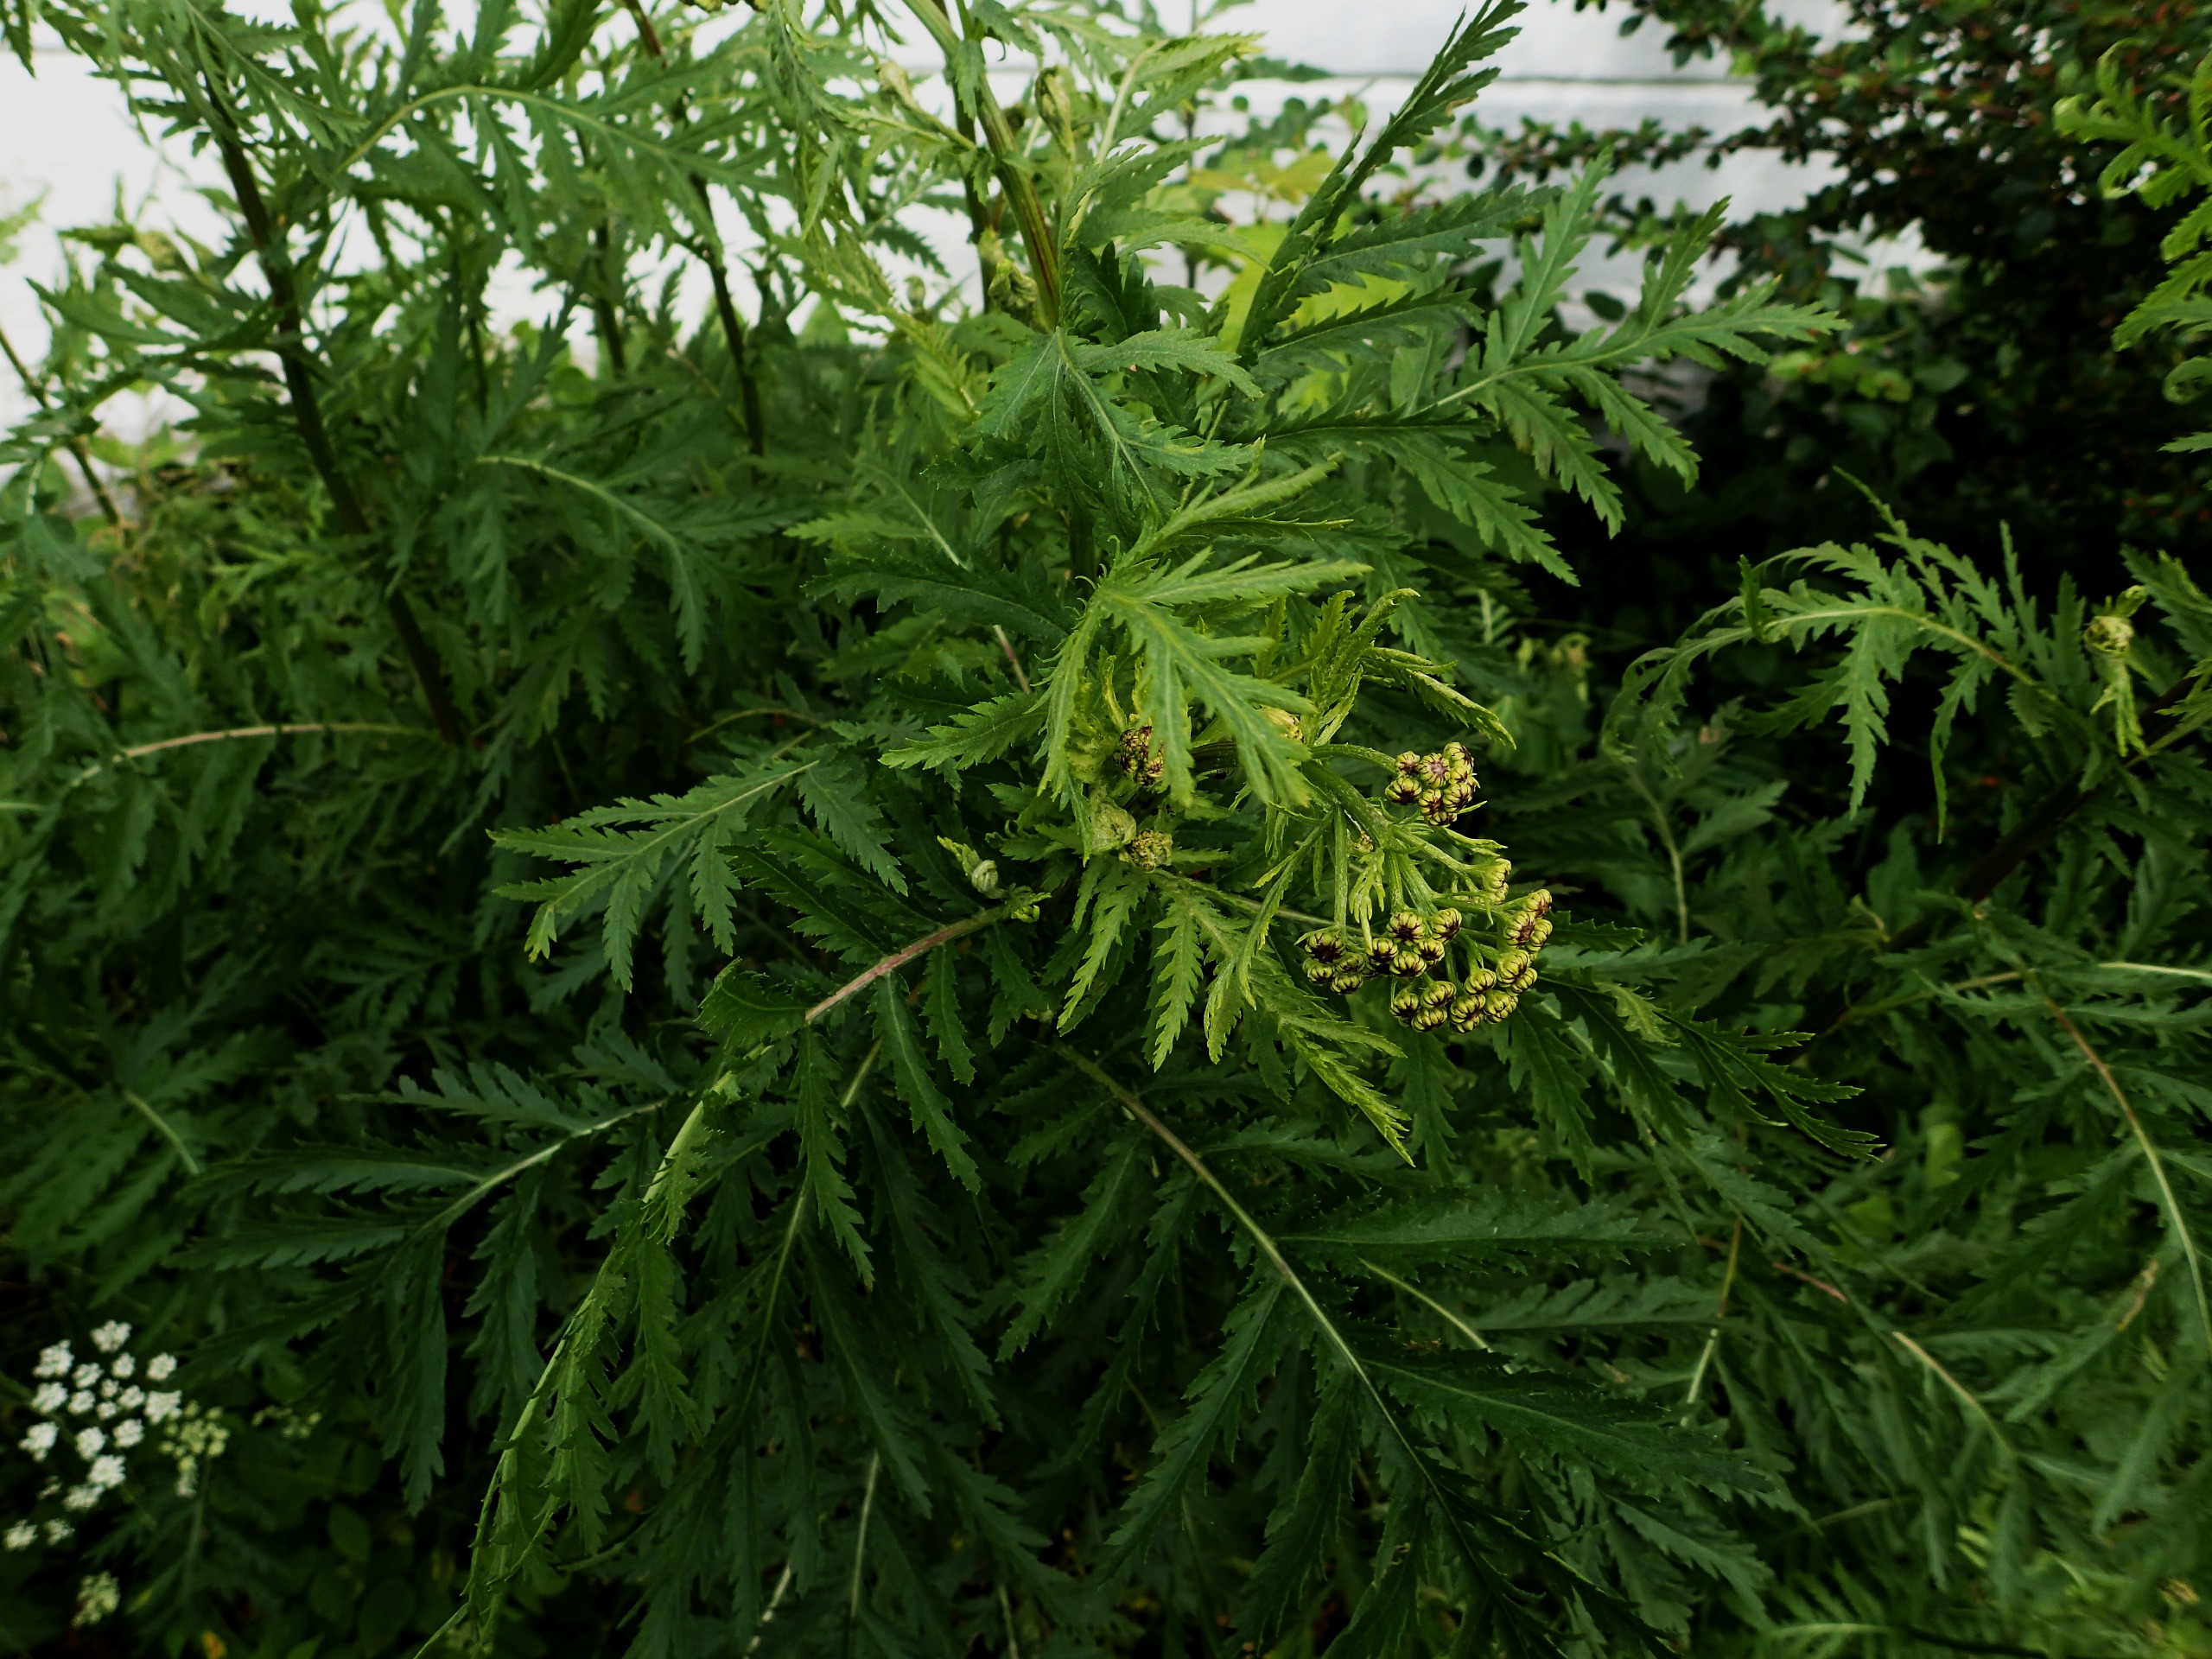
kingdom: Plantae
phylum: Tracheophyta
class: Magnoliopsida
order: Asterales
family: Asteraceae
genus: Tanacetum
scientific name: Tanacetum vulgare
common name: Rejnfan
